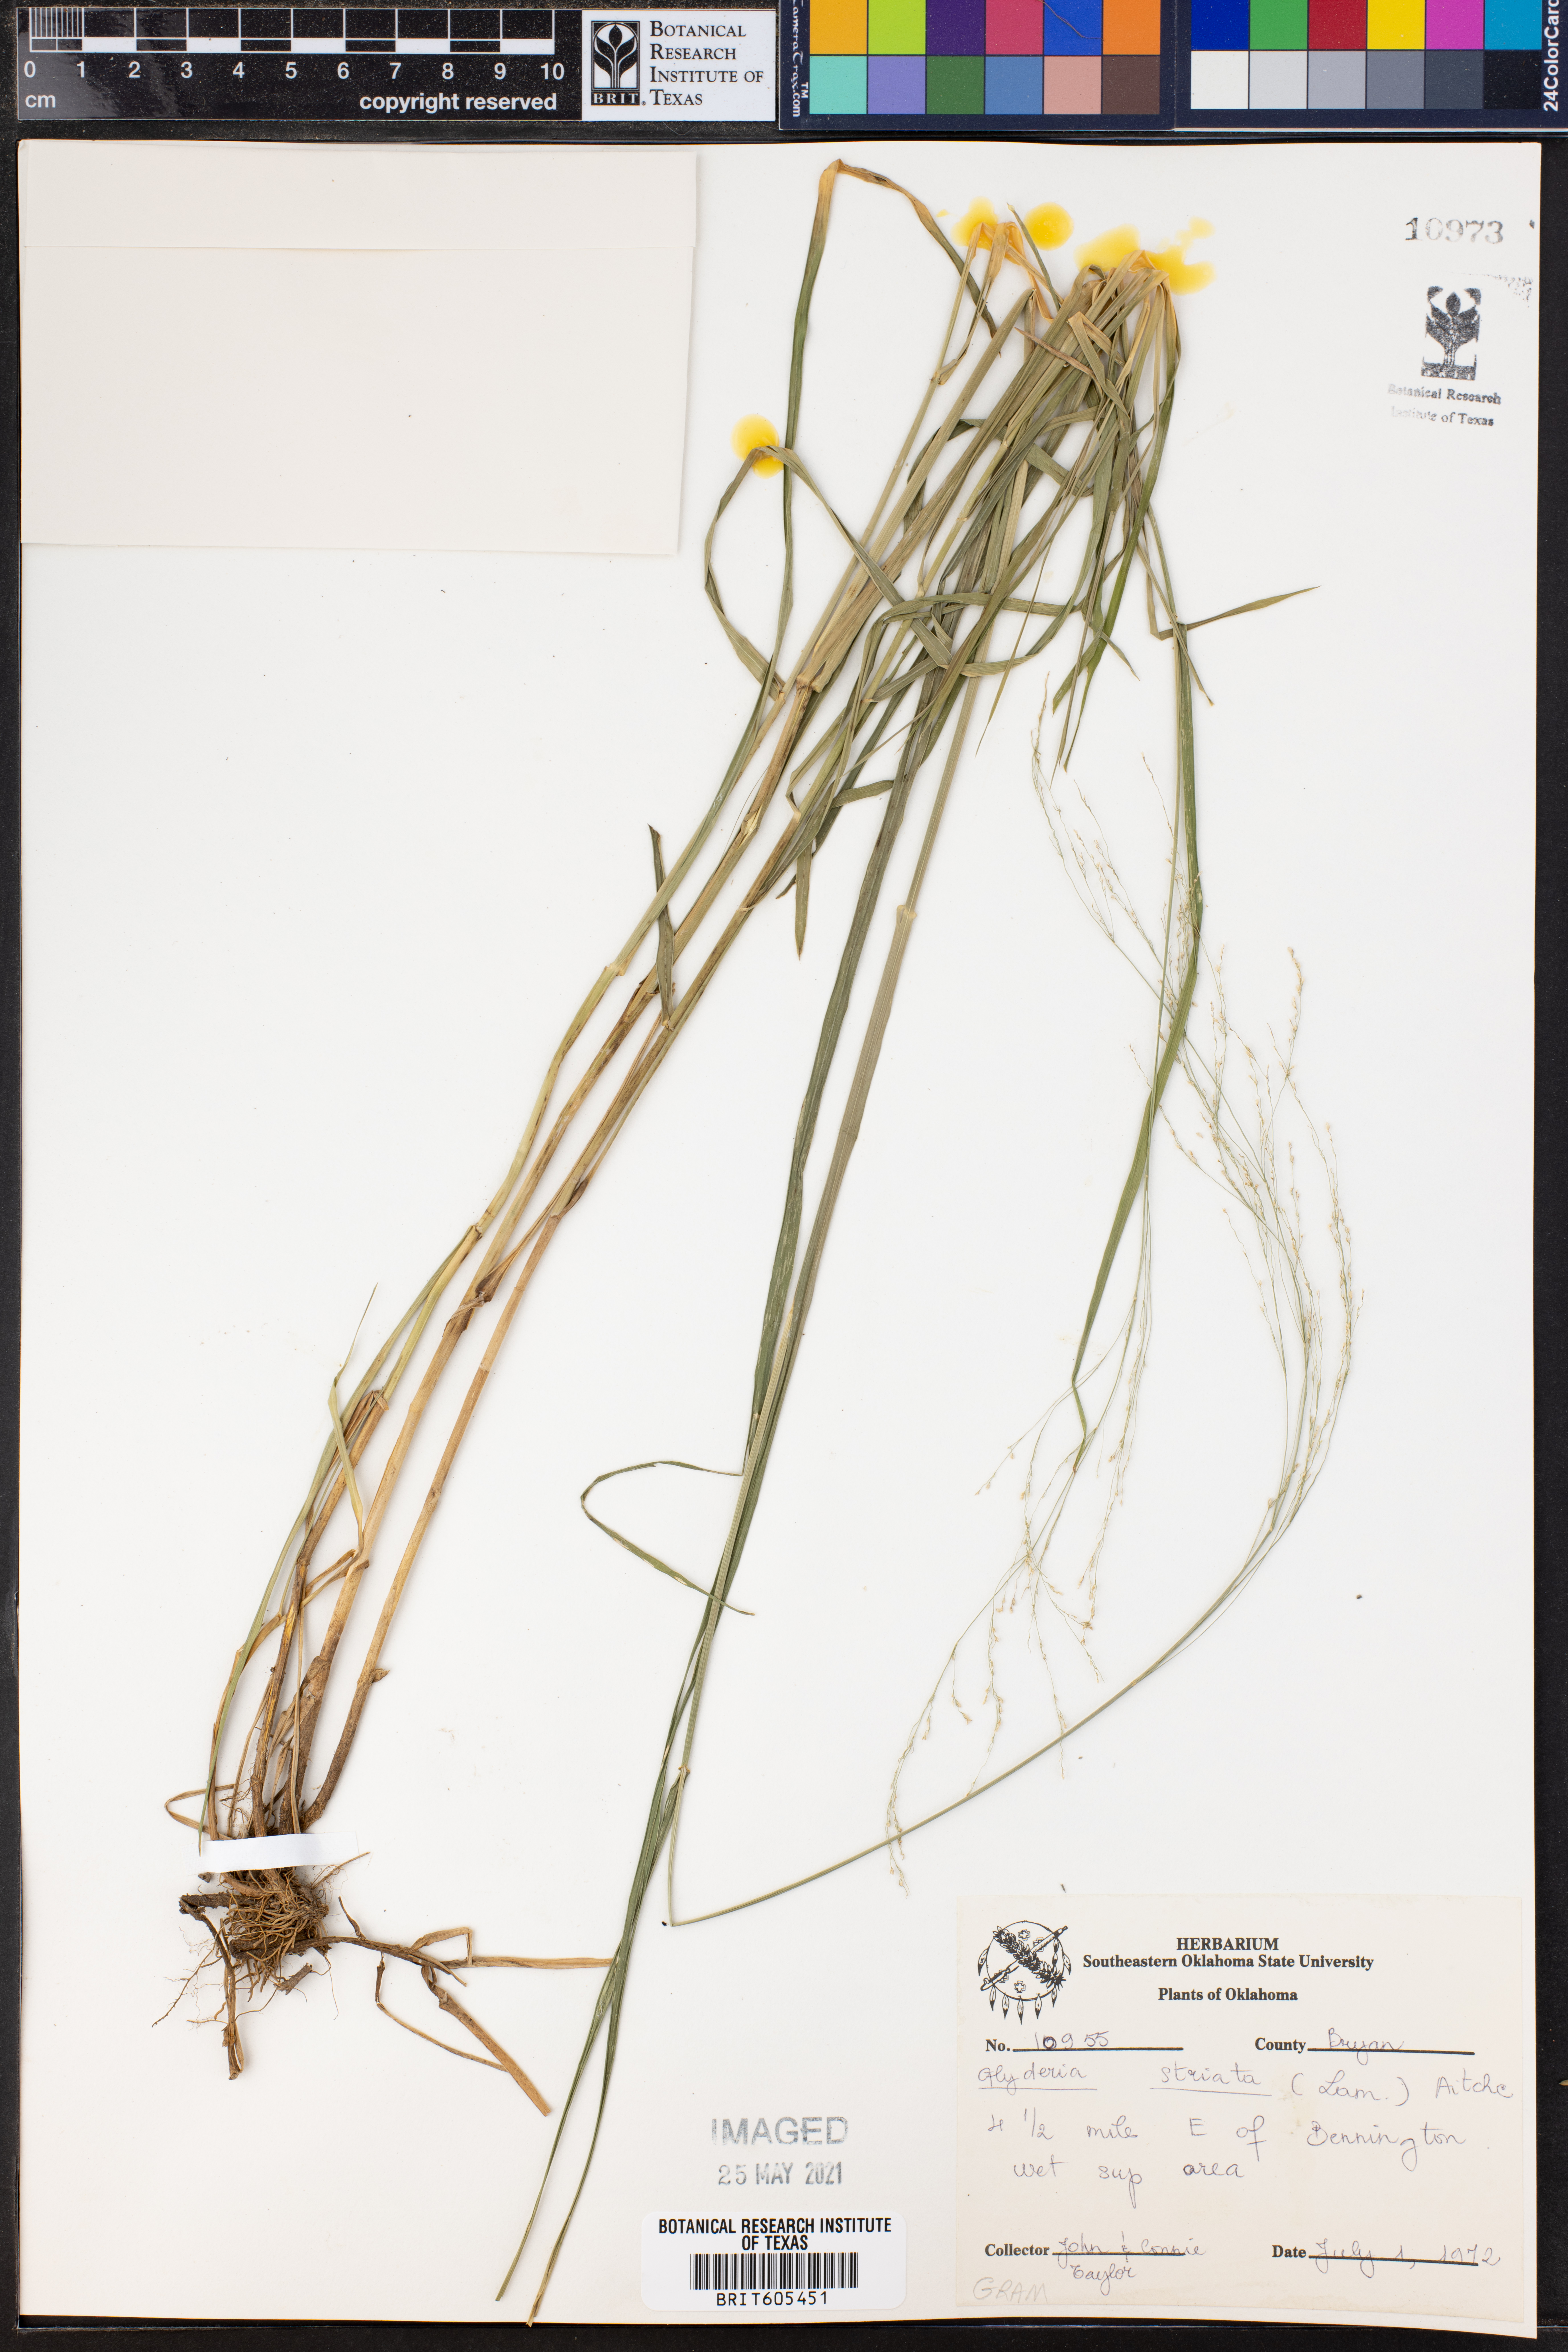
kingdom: Plantae
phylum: Tracheophyta
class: Liliopsida
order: Poales
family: Poaceae
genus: Glyceria
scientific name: Glyceria striata
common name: Fowl manna grass
